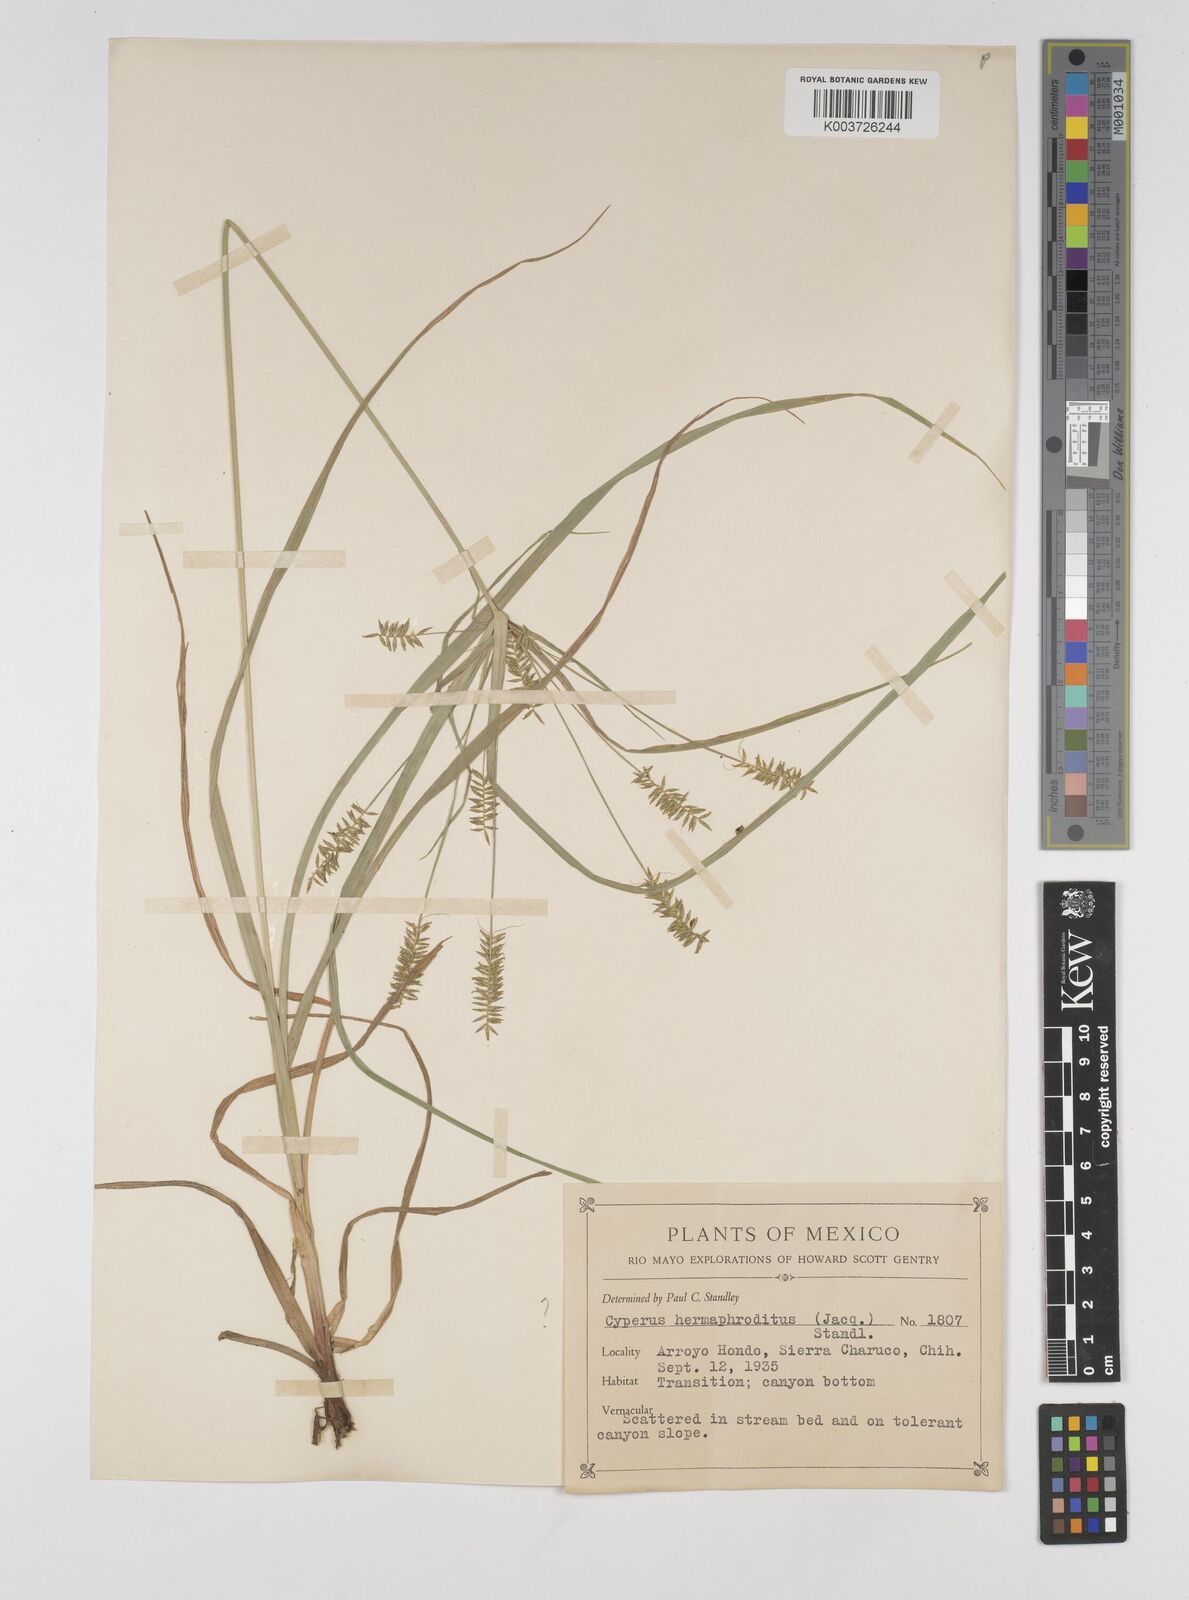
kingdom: Plantae
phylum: Tracheophyta
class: Liliopsida
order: Poales
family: Cyperaceae
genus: Cyperus
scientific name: Cyperus hermaphroditus
